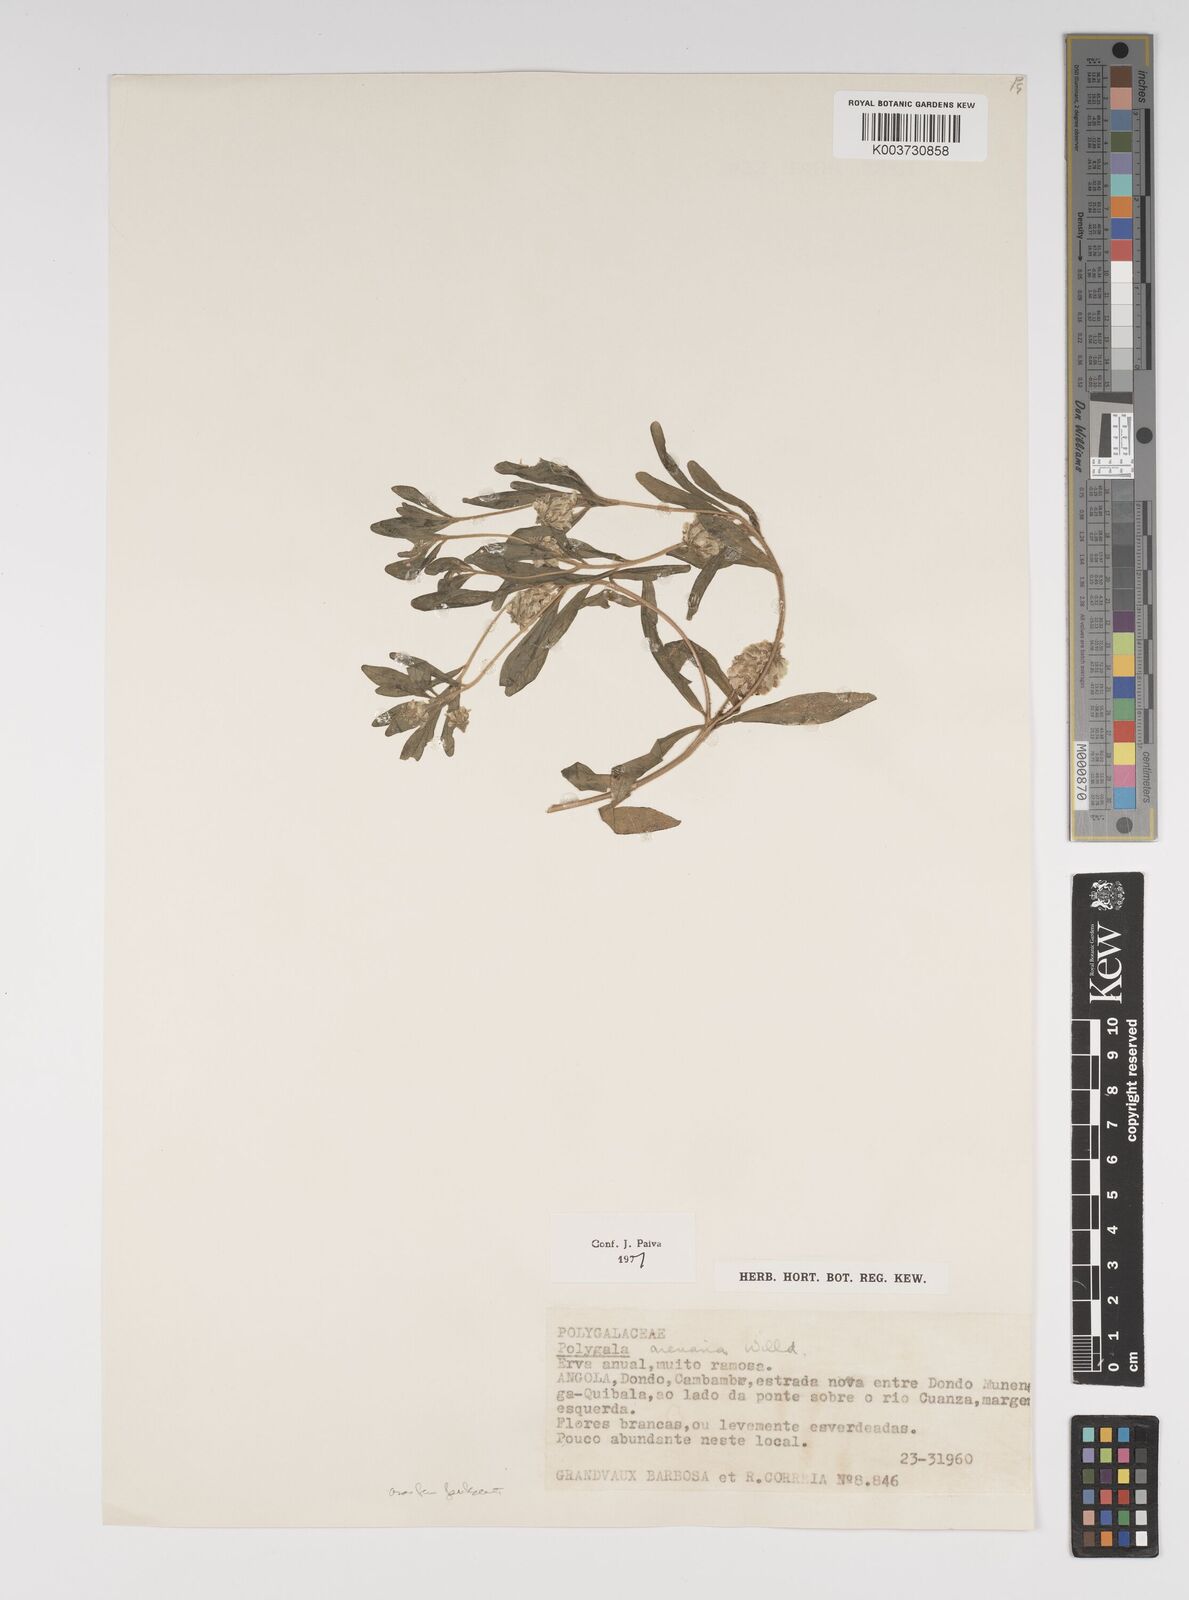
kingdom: Plantae
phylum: Tracheophyta
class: Magnoliopsida
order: Fabales
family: Polygalaceae
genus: Polygala
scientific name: Polygala arenaria
